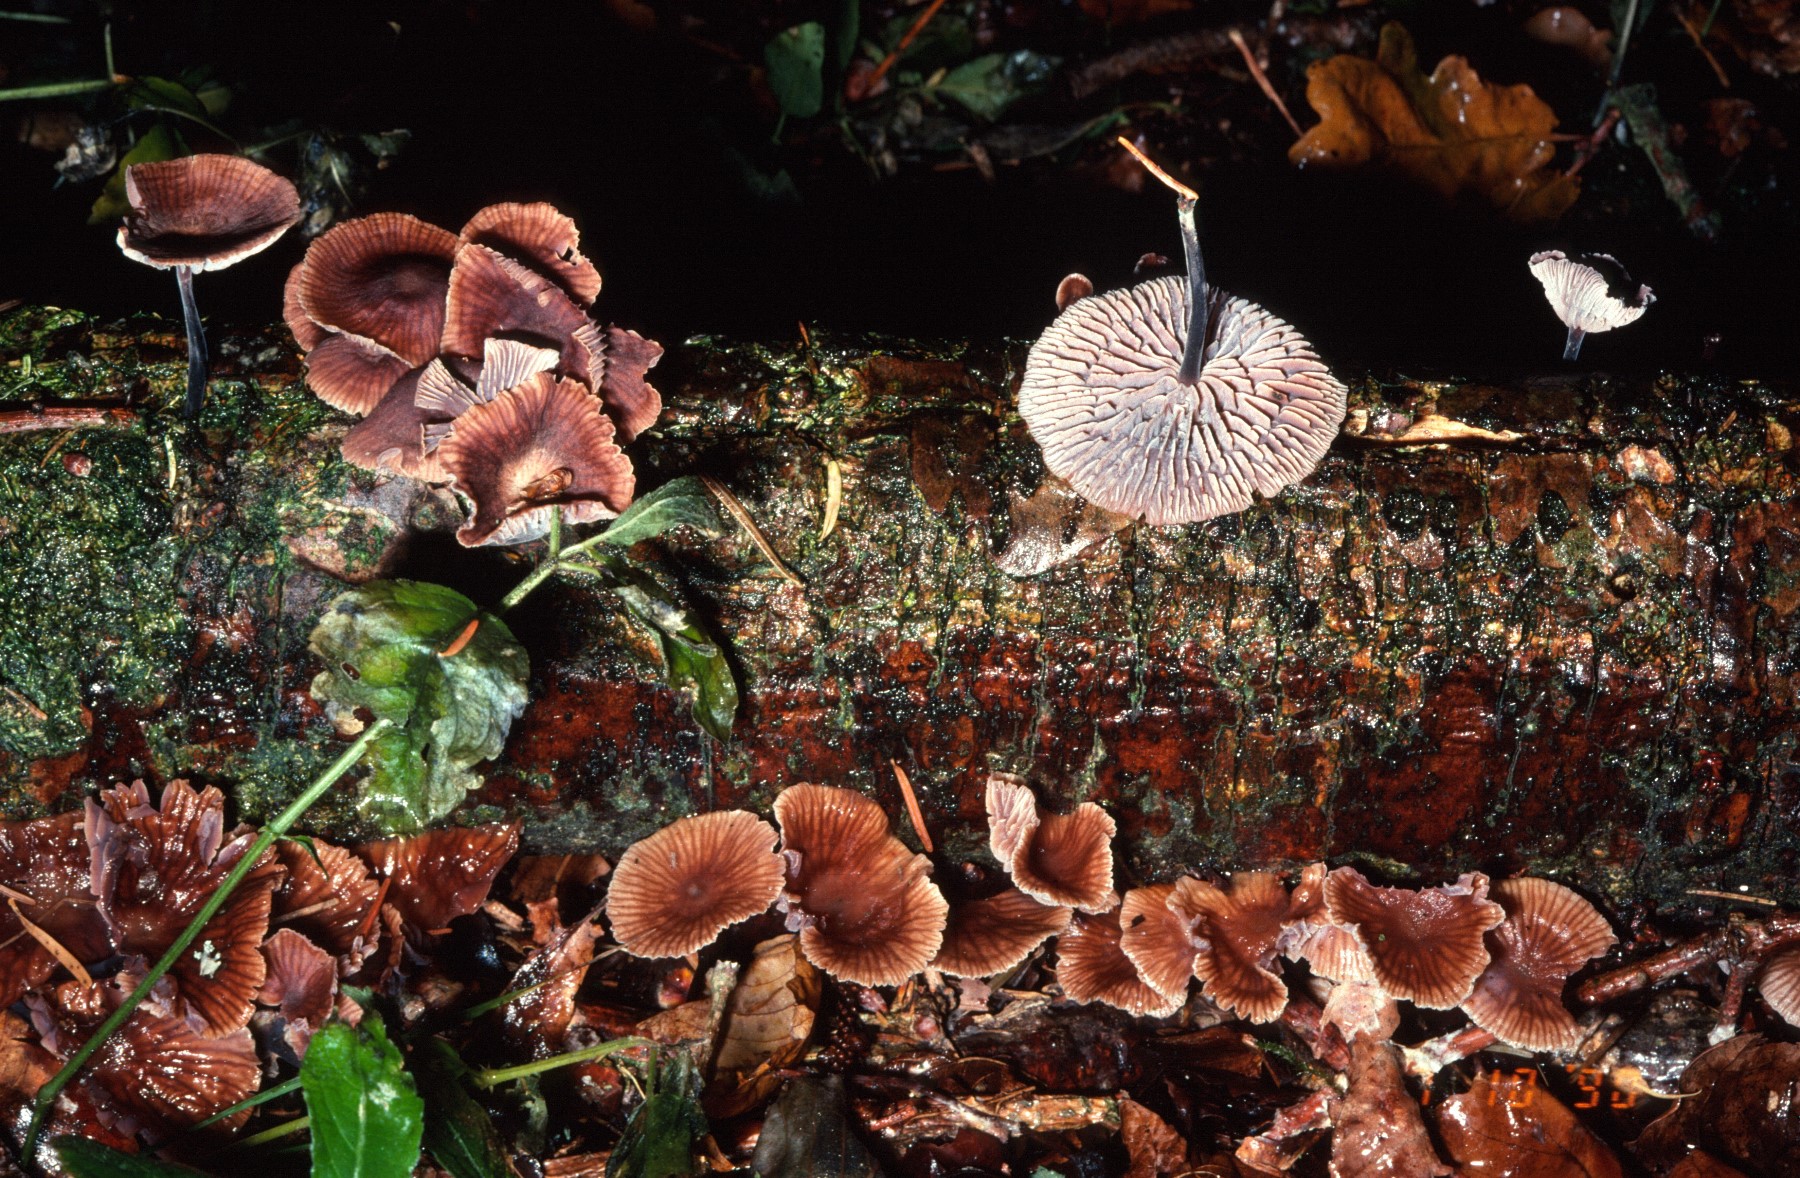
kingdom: Fungi
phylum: Basidiomycota
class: Agaricomycetes
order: Agaricales
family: Omphalotaceae
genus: Gymnopus
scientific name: Gymnopus foetidus
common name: stinkende fladhat
